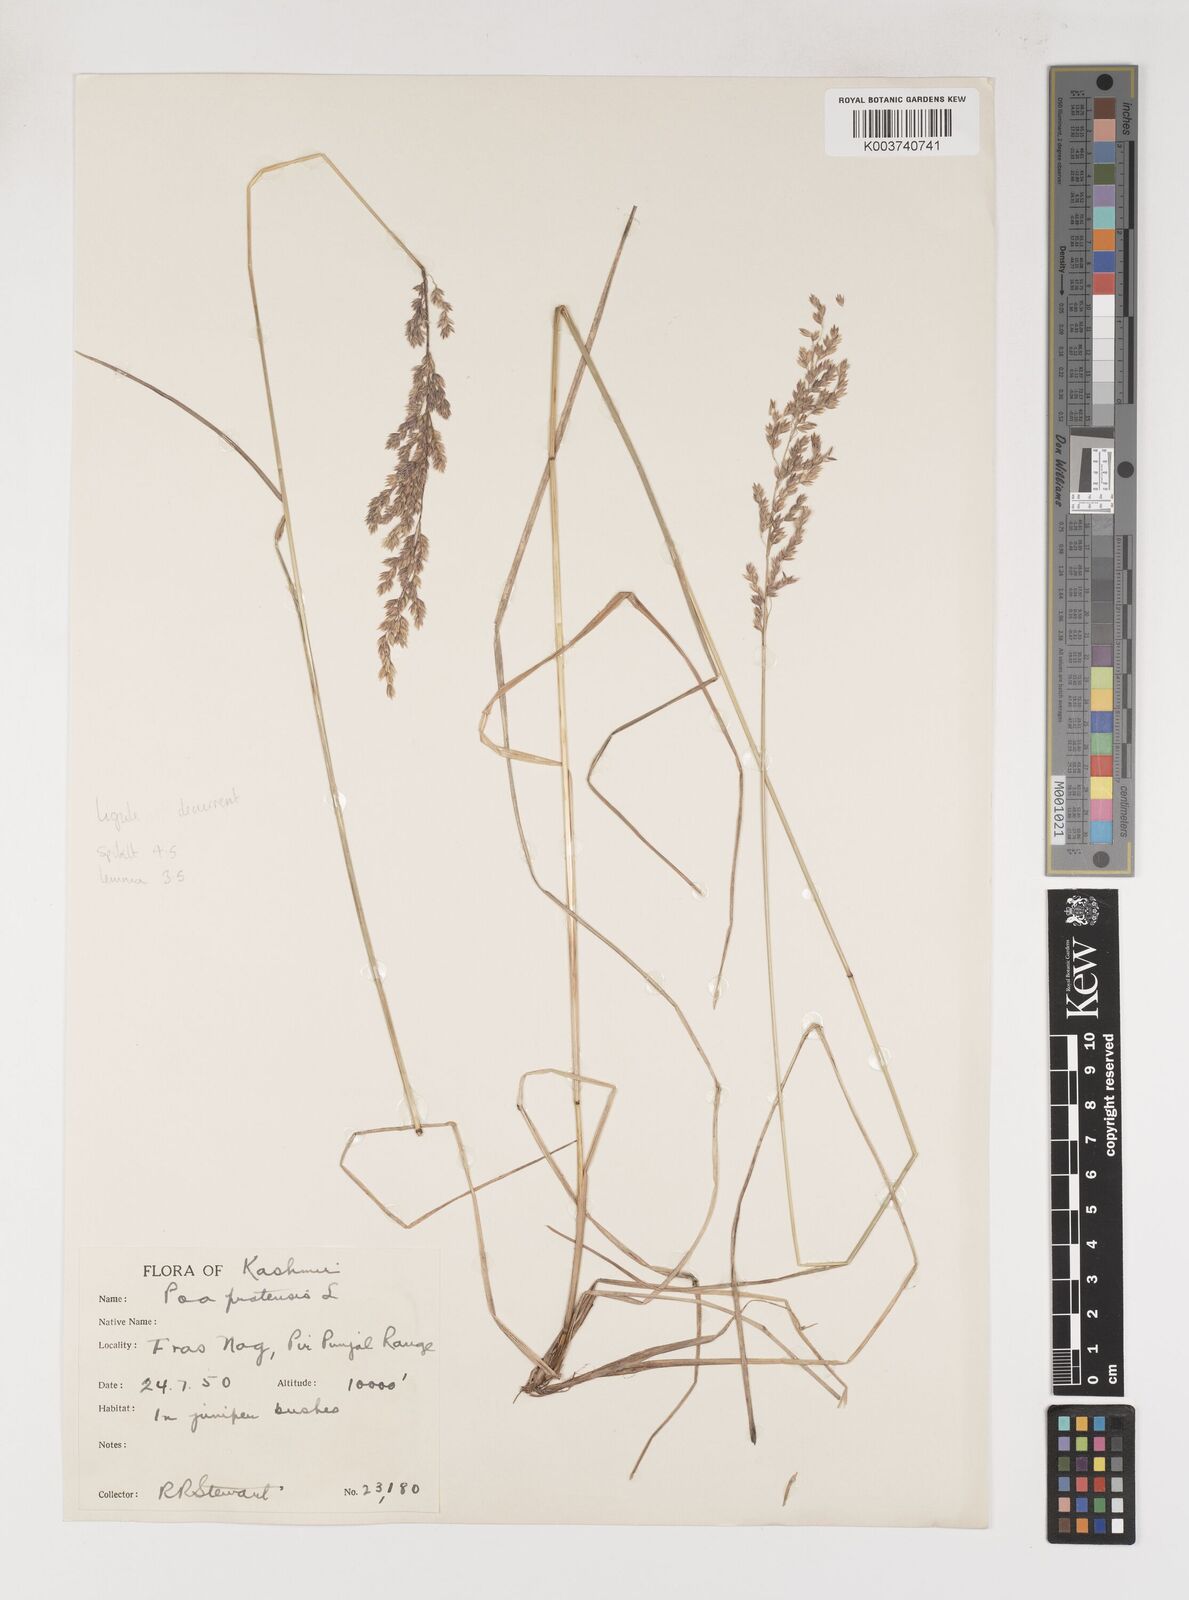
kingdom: Plantae
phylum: Tracheophyta
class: Liliopsida
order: Poales
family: Poaceae
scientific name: Poaceae
